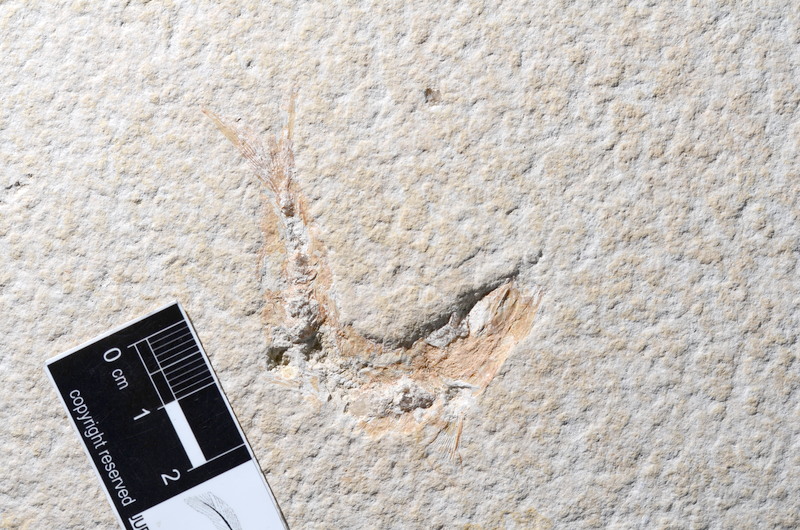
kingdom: Animalia
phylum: Chordata
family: Ascalaboidae
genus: Tharsis
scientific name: Tharsis dubius
